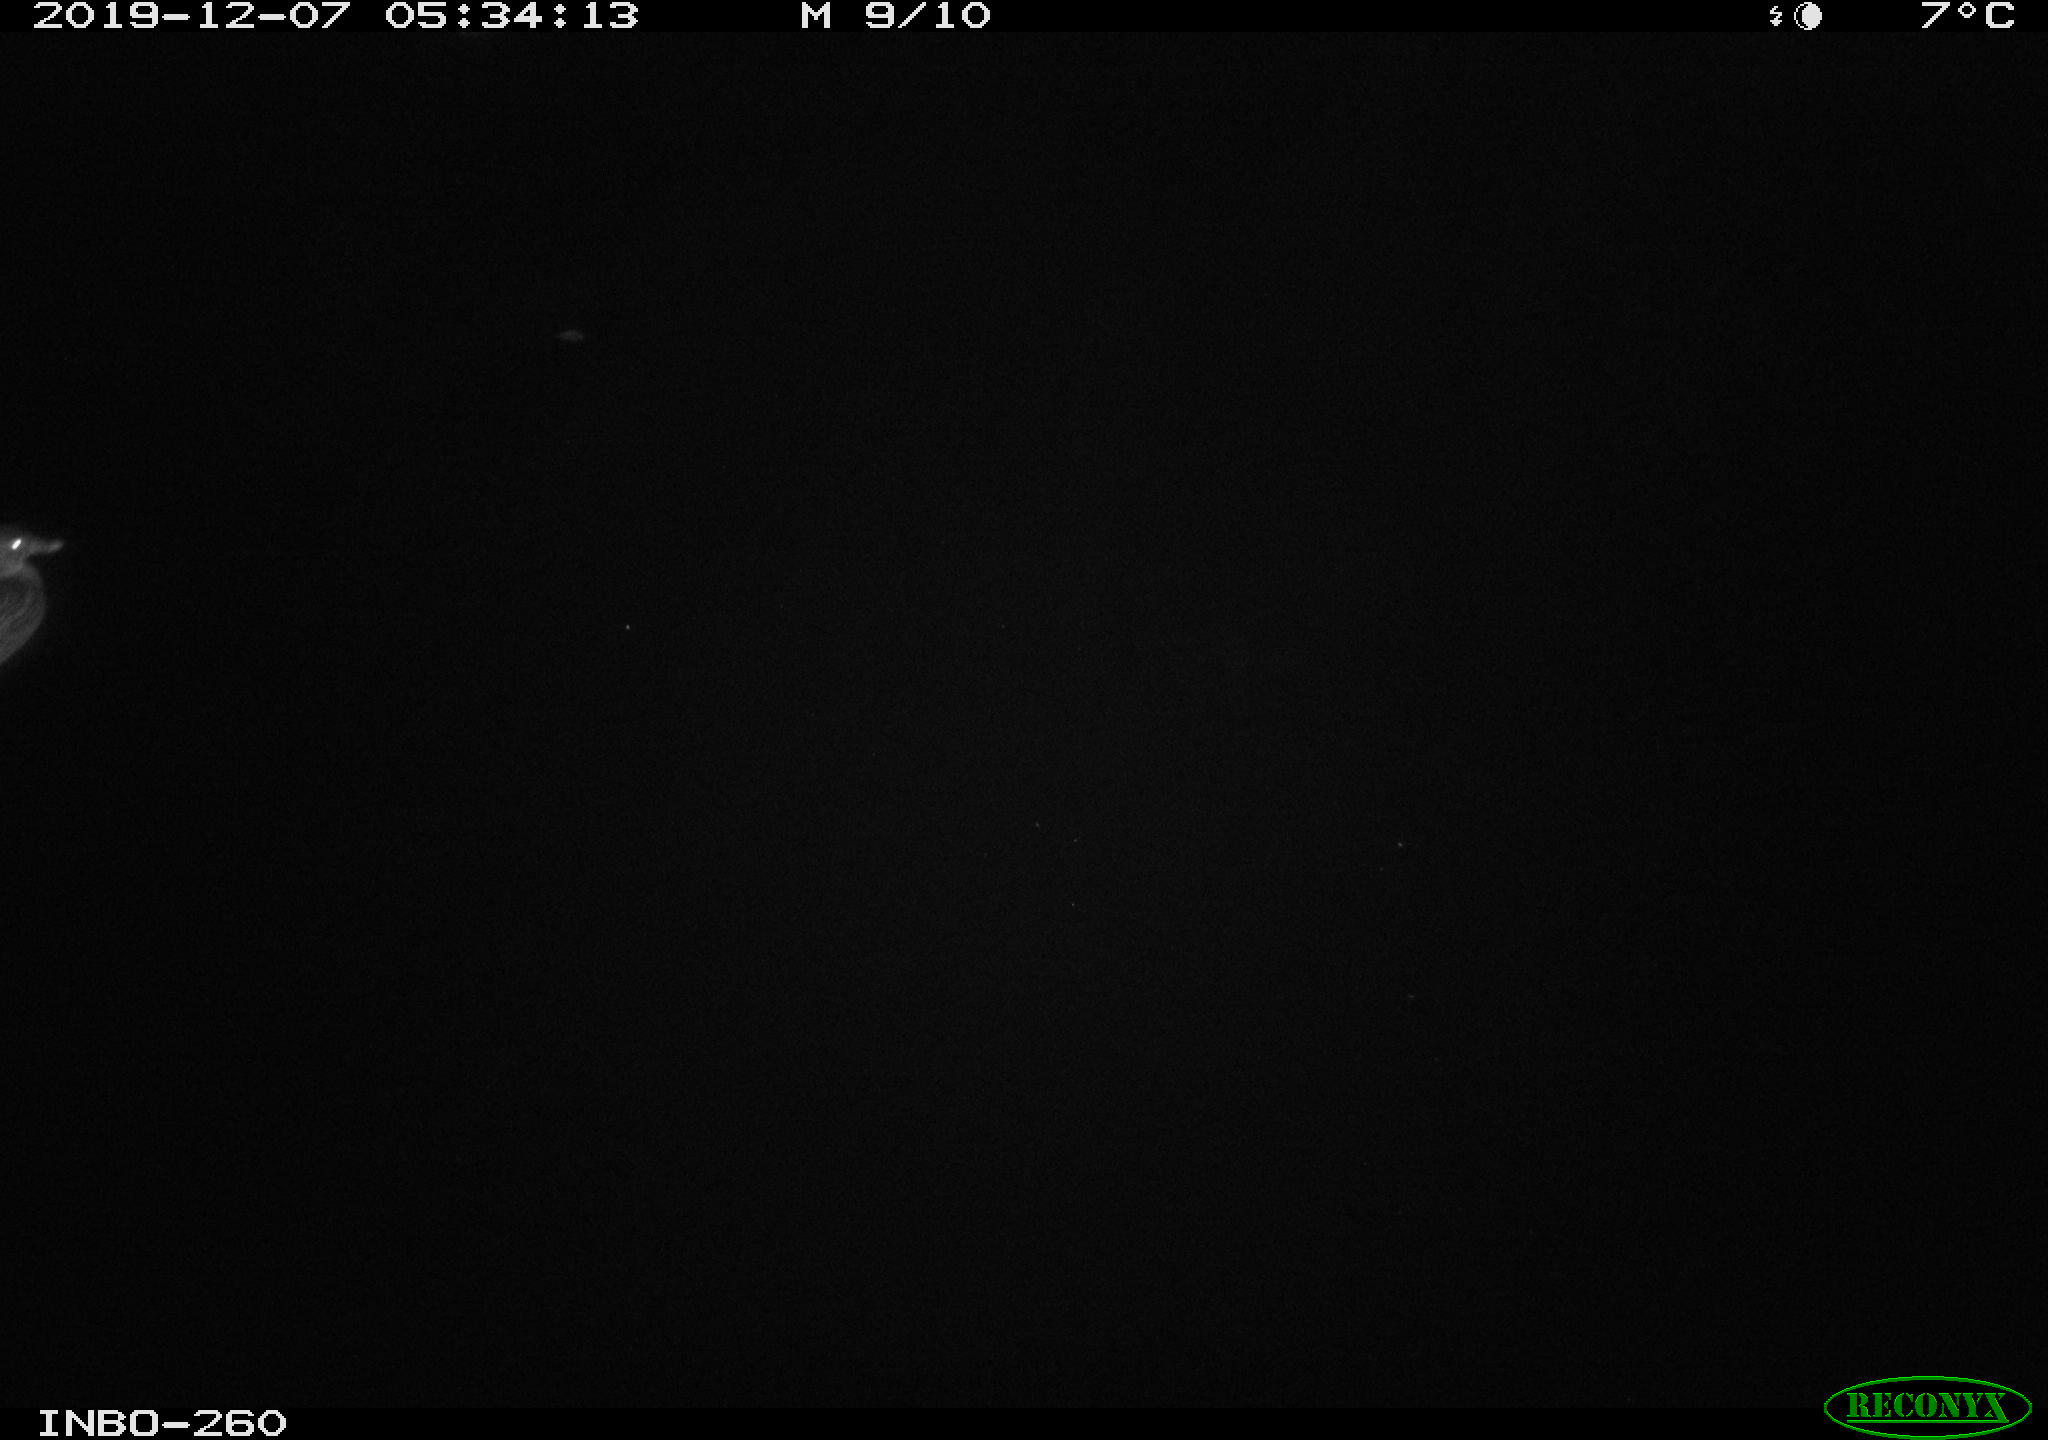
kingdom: Animalia
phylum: Chordata
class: Aves
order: Anseriformes
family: Anatidae
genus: Anas
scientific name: Anas platyrhynchos
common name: Mallard
